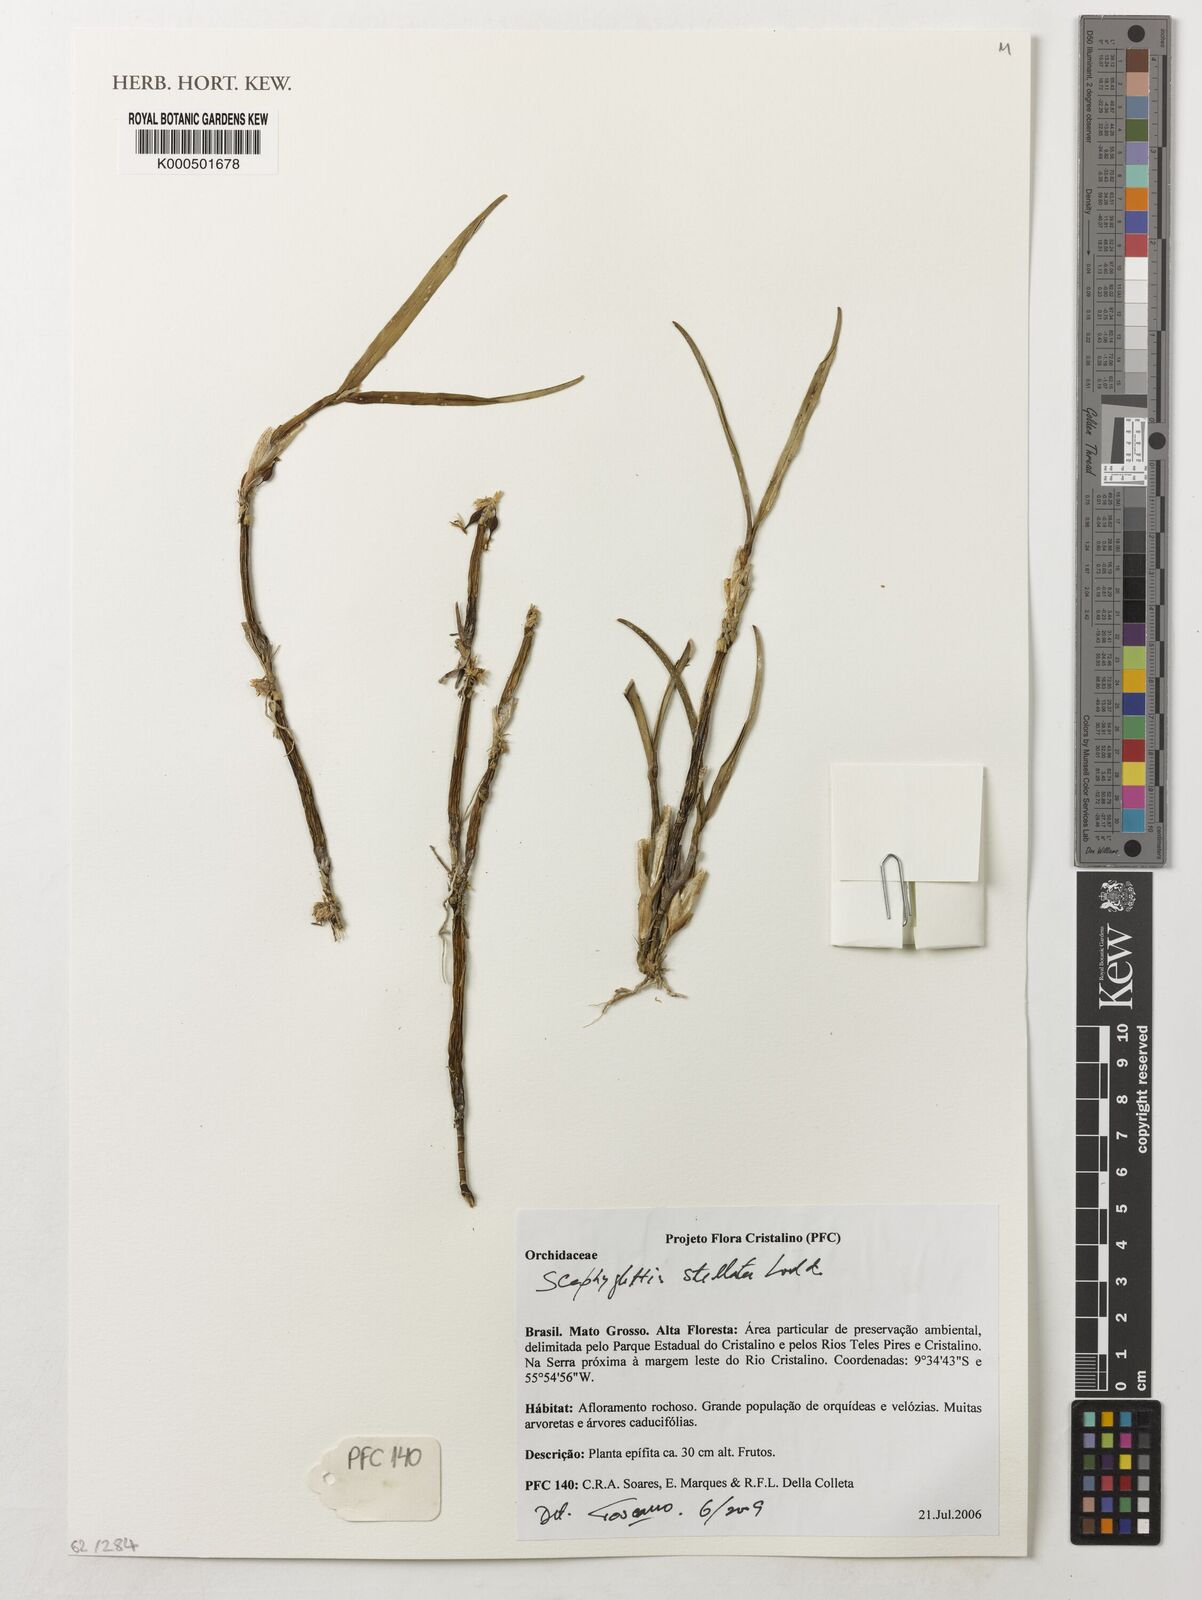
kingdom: Plantae
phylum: Tracheophyta
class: Liliopsida
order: Asparagales
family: Orchidaceae
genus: Scaphyglottis
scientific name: Scaphyglottis stellata
